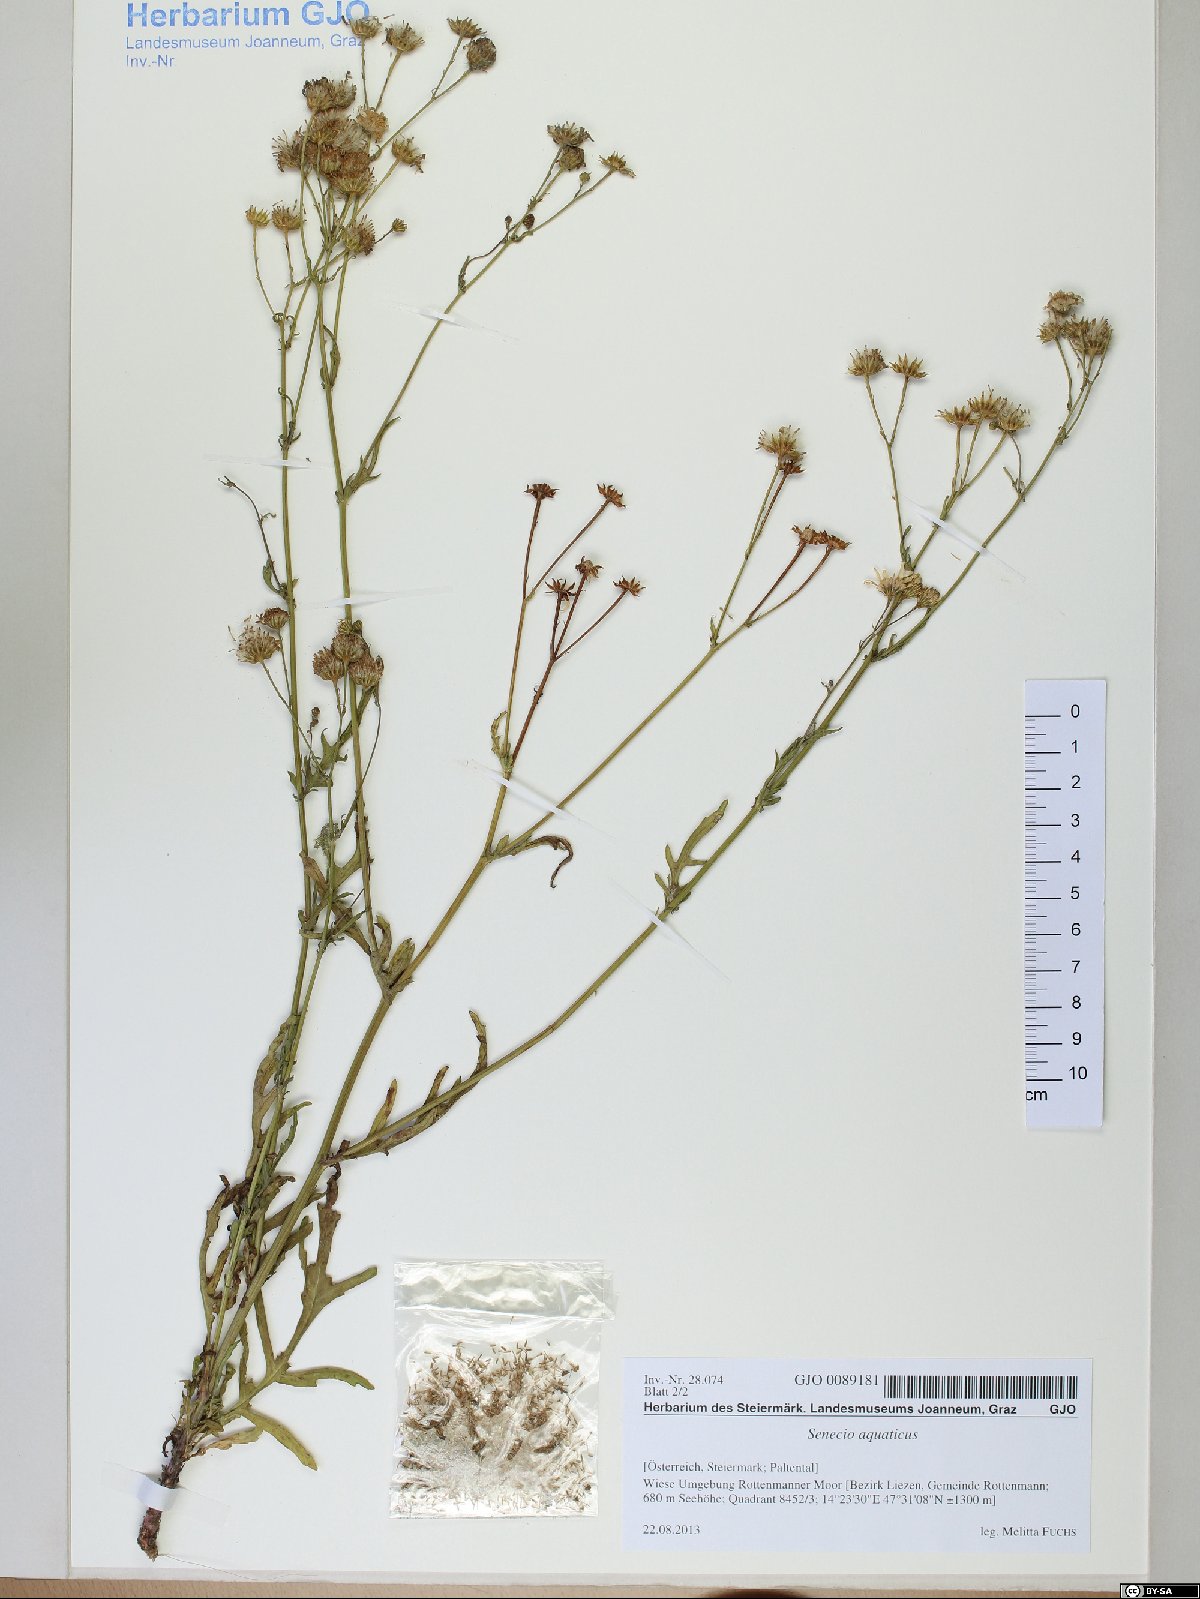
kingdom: Plantae
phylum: Tracheophyta
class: Magnoliopsida
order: Asterales
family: Asteraceae
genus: Jacobaea
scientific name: Jacobaea aquatica
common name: Water ragwort
